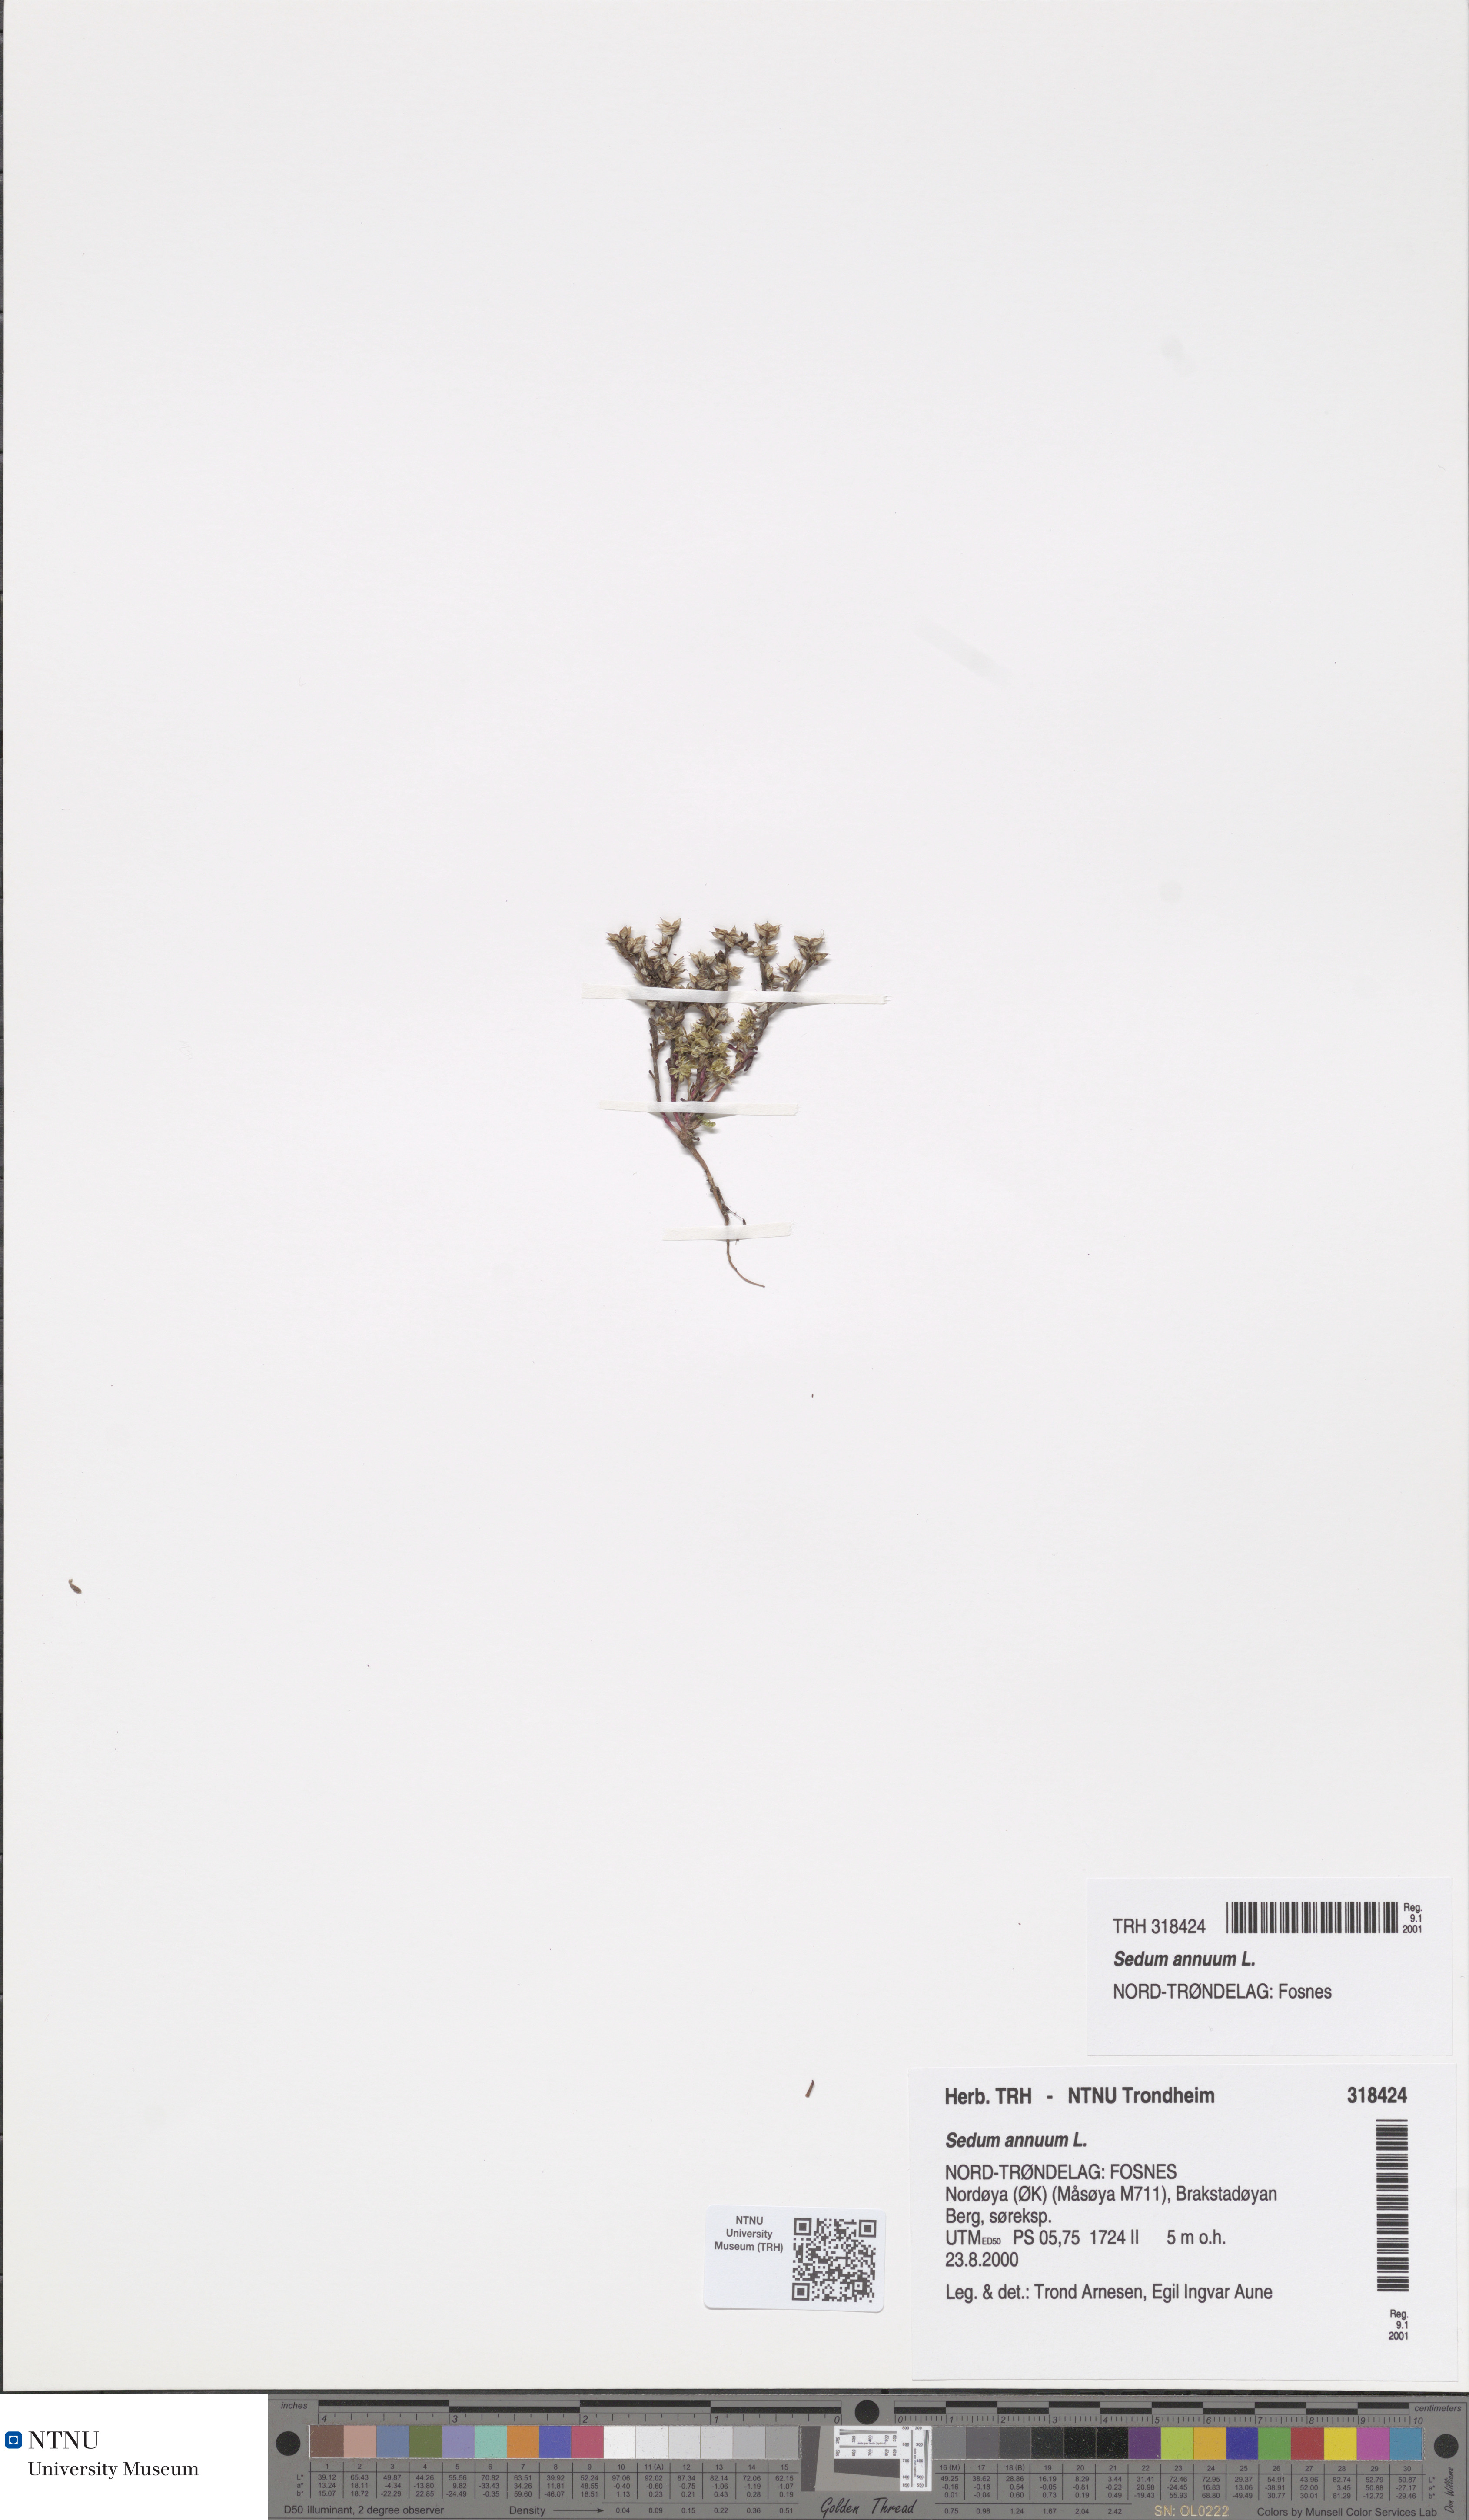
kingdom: Plantae
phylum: Tracheophyta
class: Magnoliopsida
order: Saxifragales
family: Crassulaceae
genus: Sedum
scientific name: Sedum annuum
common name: Annual stonecrop
